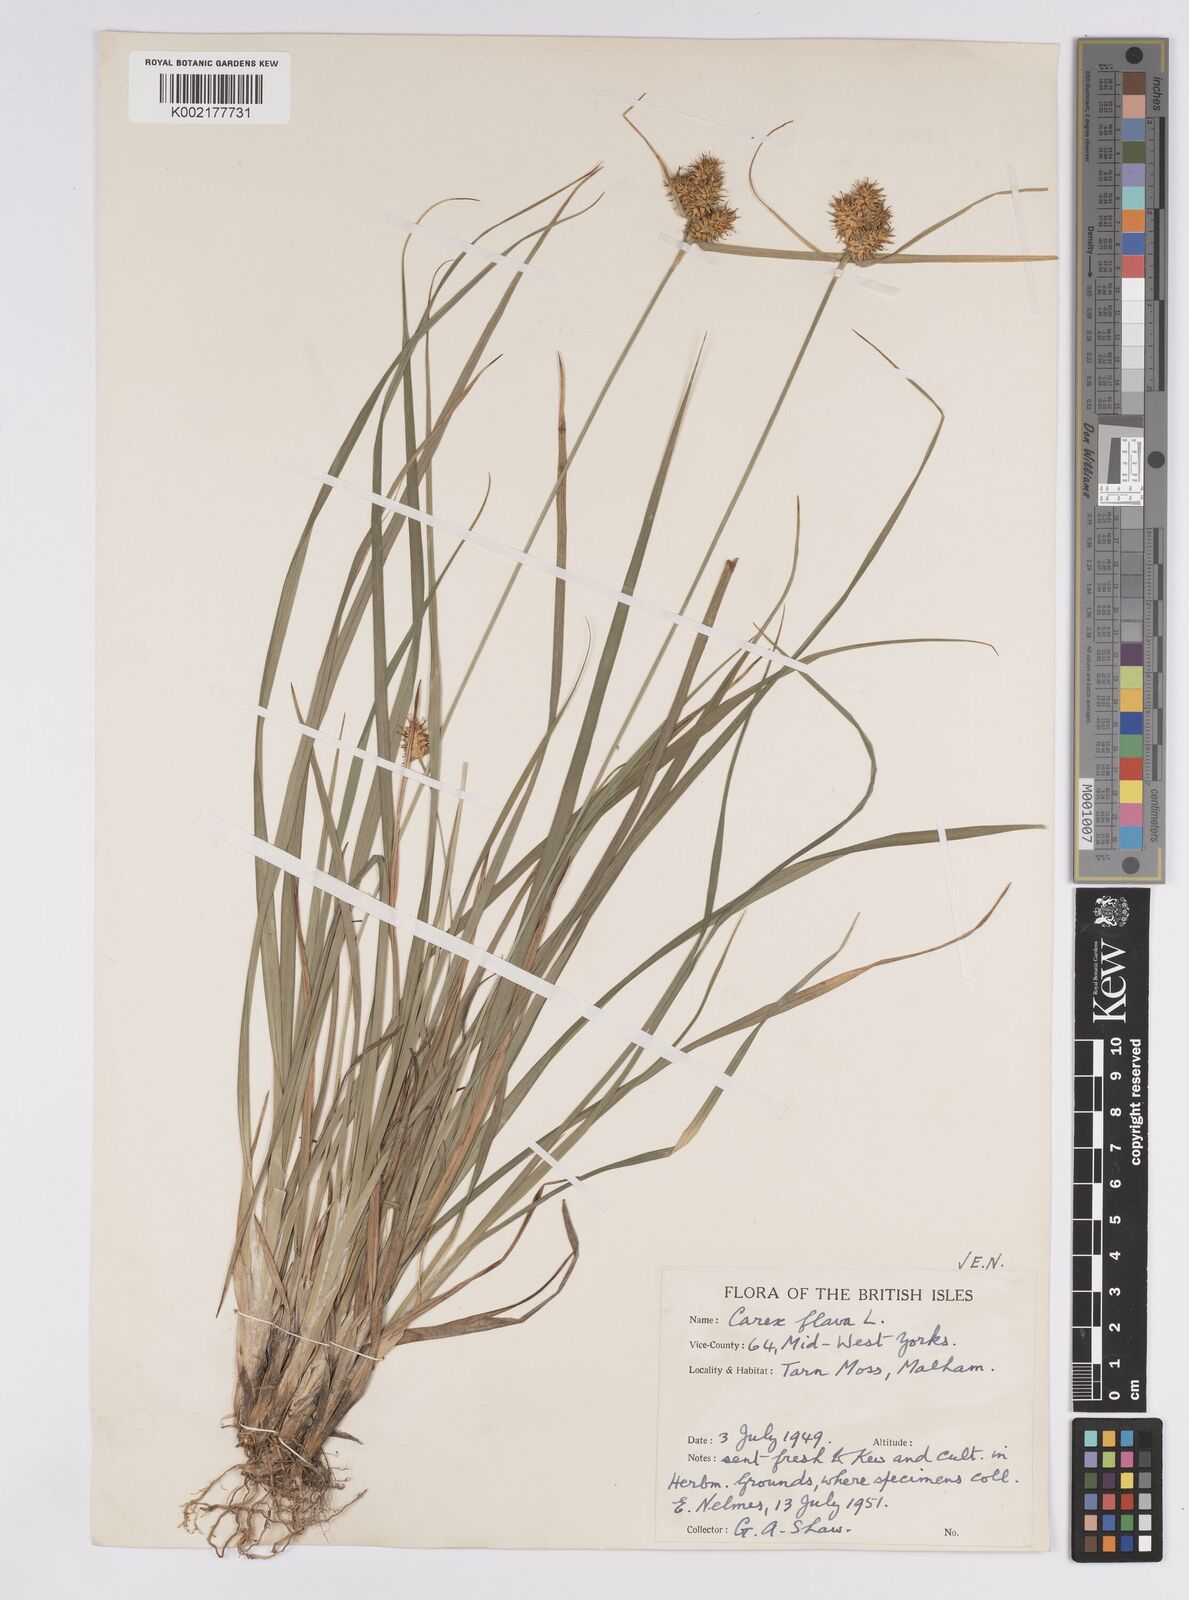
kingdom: Plantae
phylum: Tracheophyta
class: Liliopsida
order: Poales
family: Cyperaceae
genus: Carex
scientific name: Carex flava
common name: Large yellow-sedge
